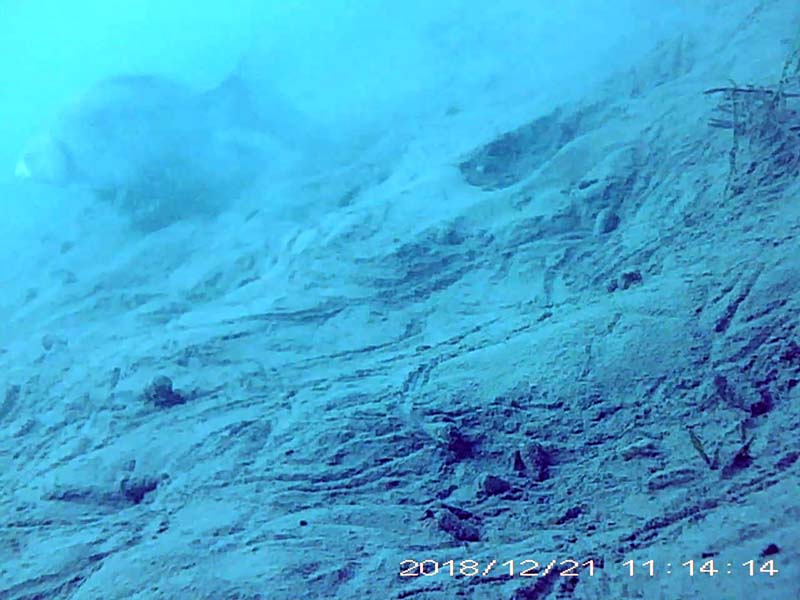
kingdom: Animalia
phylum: Chordata
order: Cypriniformes
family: Cyprinidae
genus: Carassius
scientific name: Carassius langsdorfii
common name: ギンブナ
